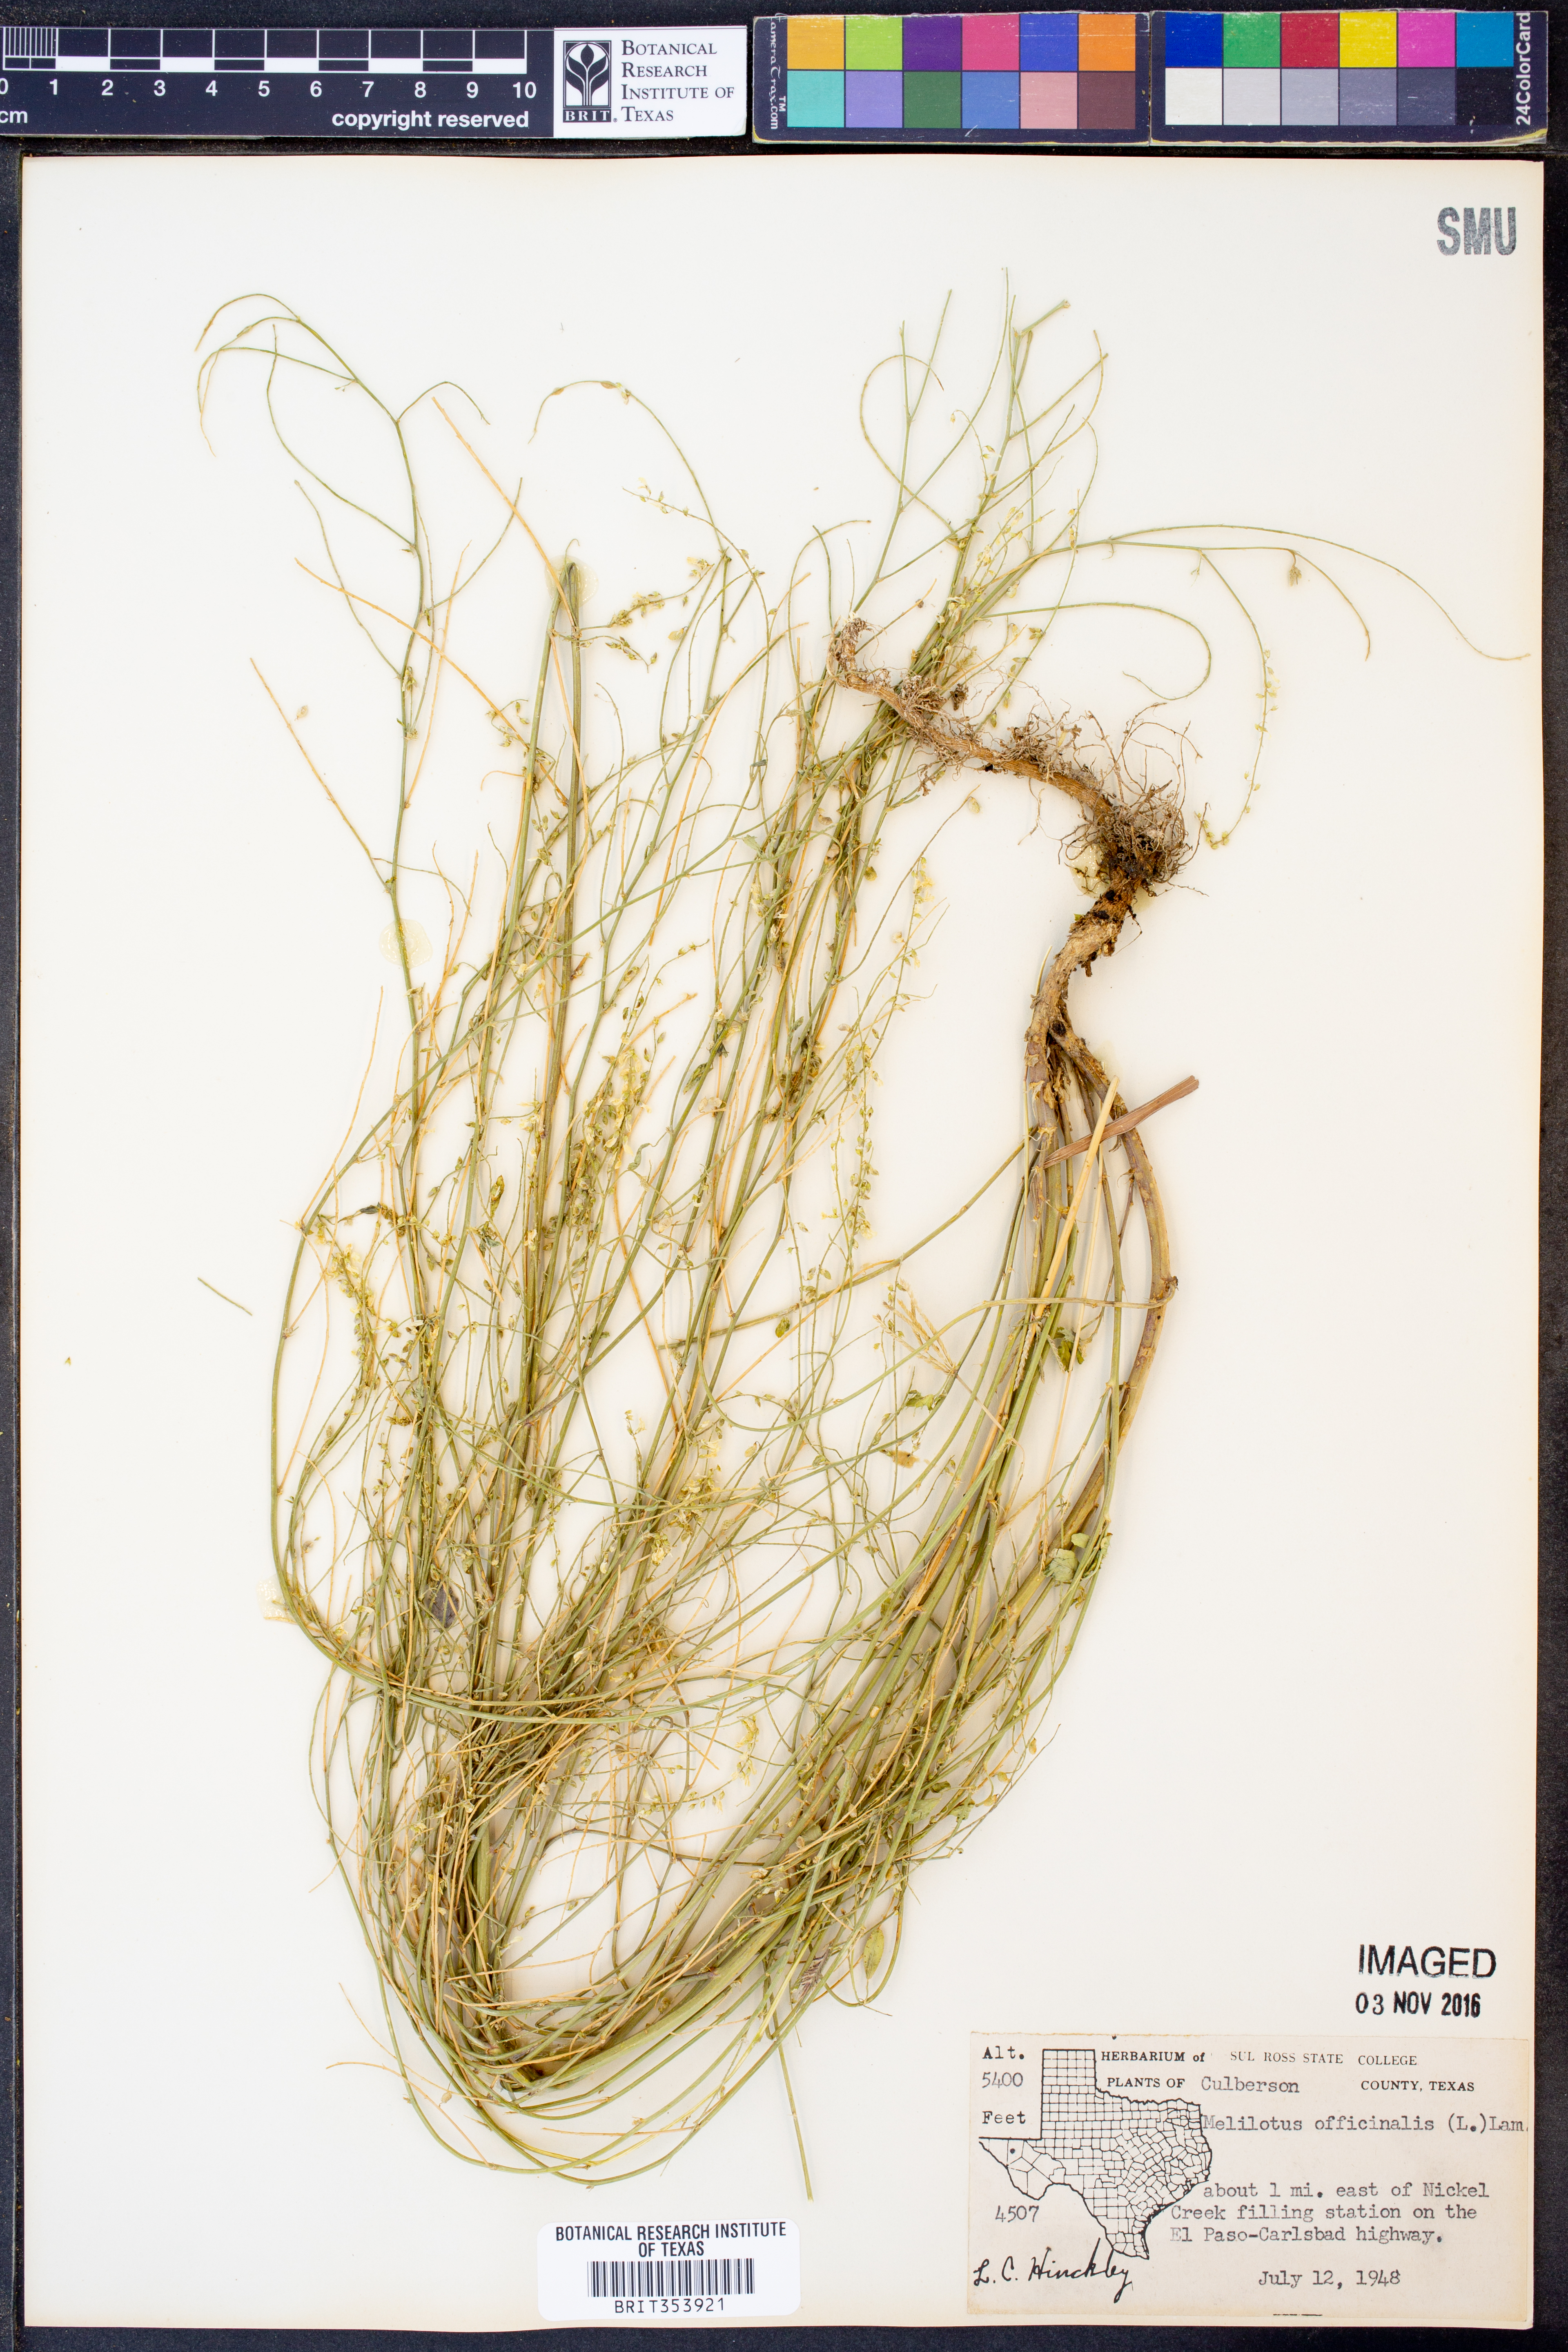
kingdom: Plantae
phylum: Tracheophyta
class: Magnoliopsida
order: Fabales
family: Fabaceae
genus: Melilotus
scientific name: Melilotus officinalis
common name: Sweetclover
